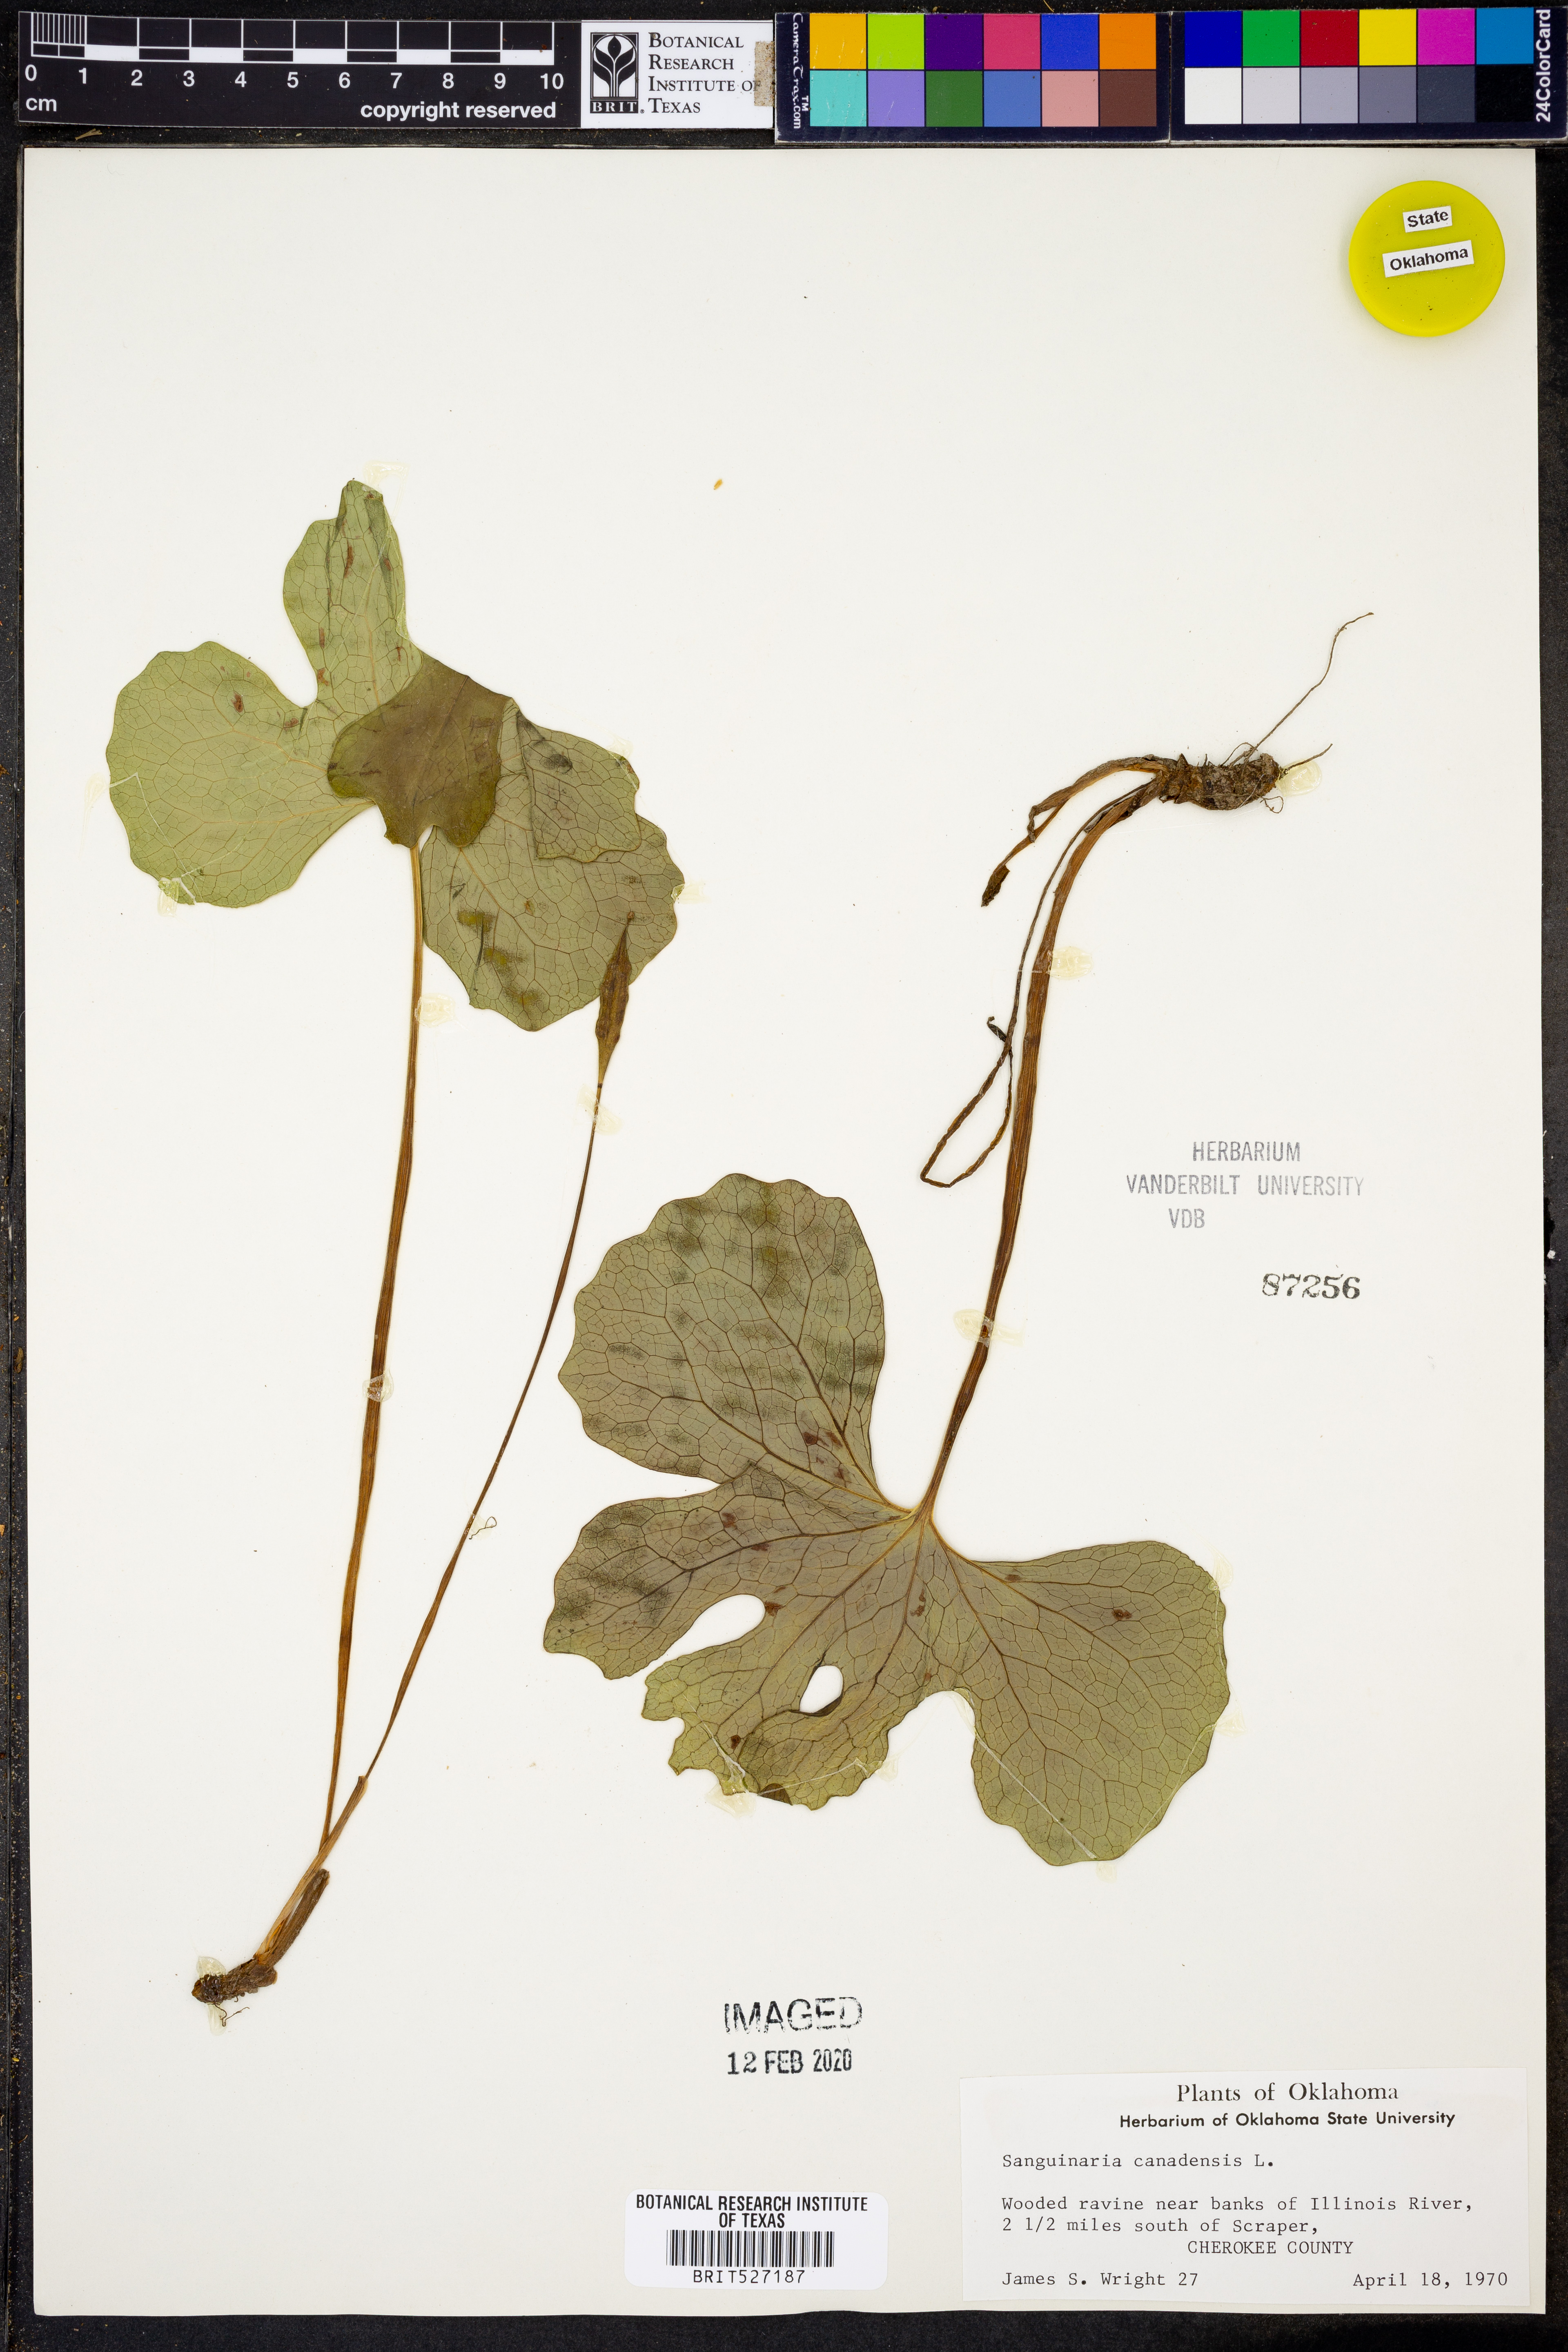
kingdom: Plantae
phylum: Tracheophyta
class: Magnoliopsida
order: Ranunculales
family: Papaveraceae
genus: Sanguinaria
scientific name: Sanguinaria canadensis
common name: Bloodroot
